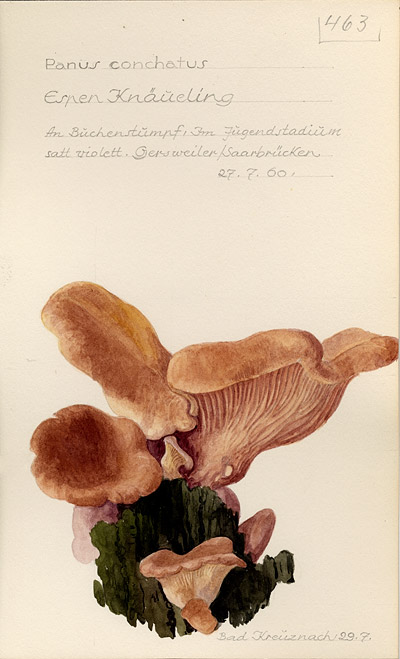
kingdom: Fungi
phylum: Basidiomycota
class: Agaricomycetes
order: Polyporales
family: Polyporaceae
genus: Lentinus
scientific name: Lentinus
